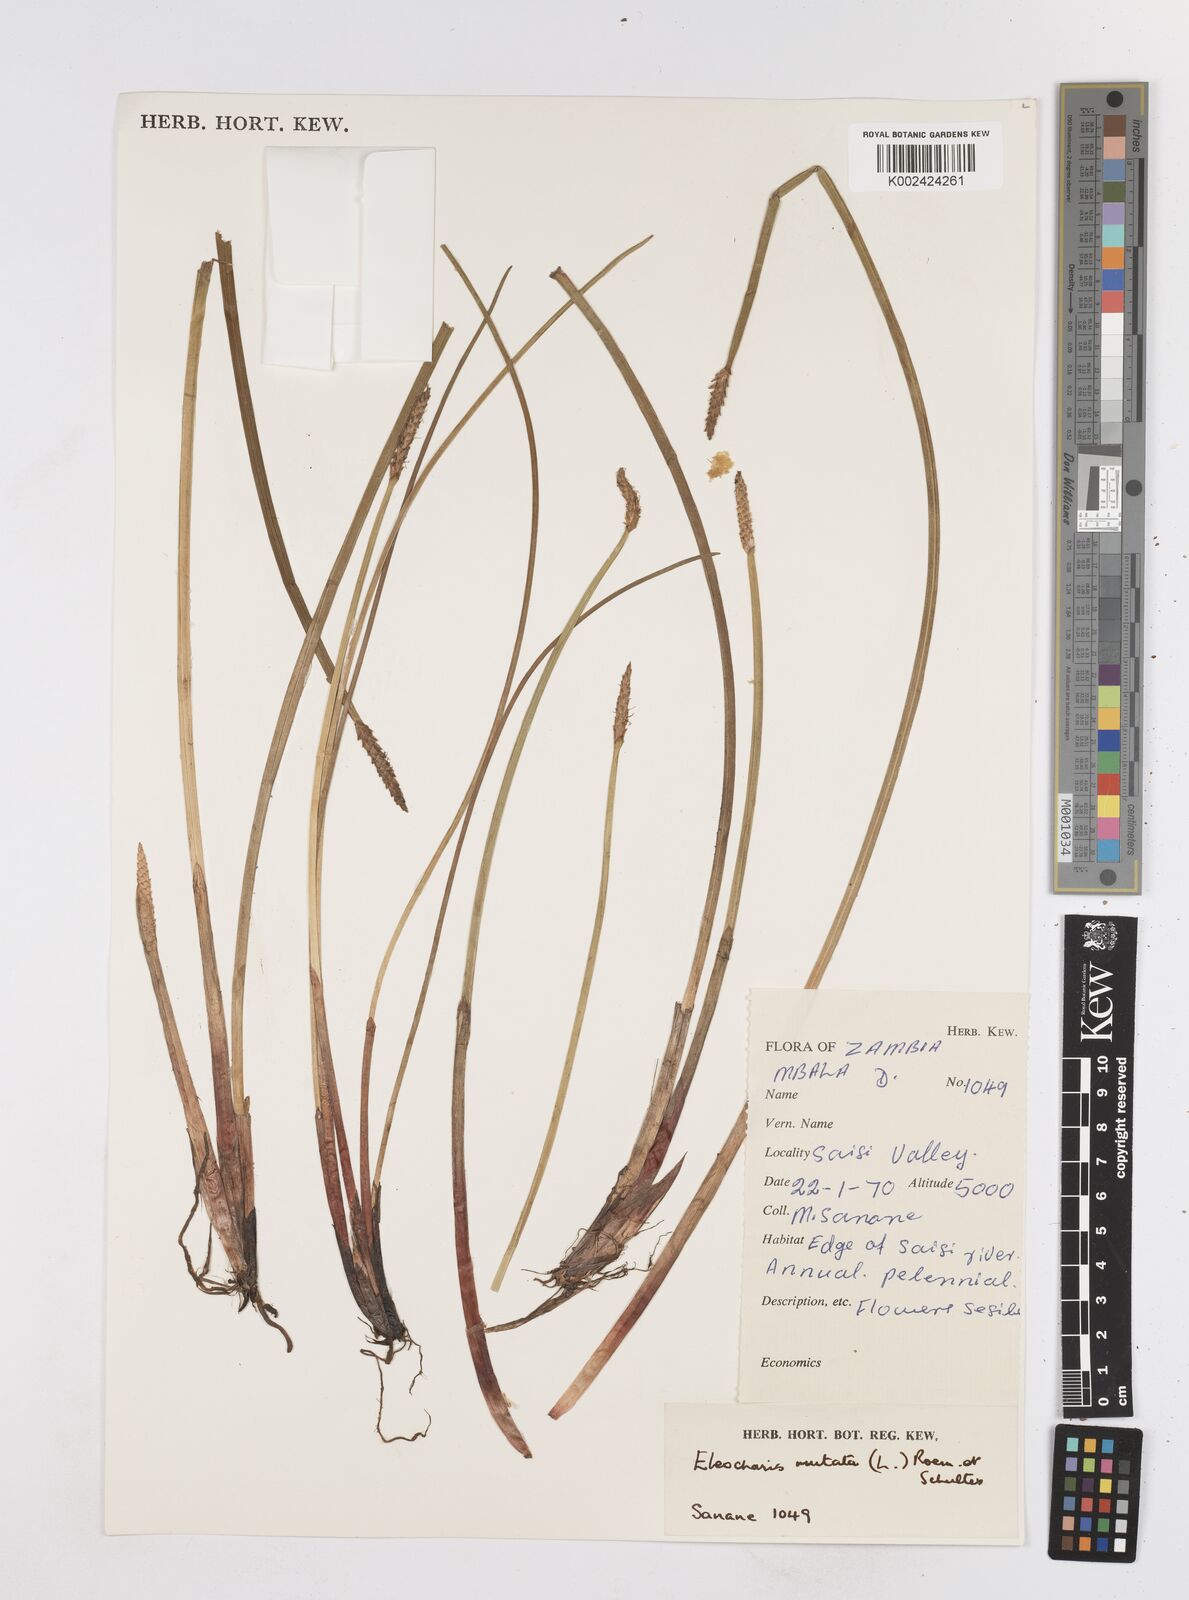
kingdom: Plantae
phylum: Tracheophyta
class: Liliopsida
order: Poales
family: Cyperaceae
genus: Eleocharis
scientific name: Eleocharis mutata
